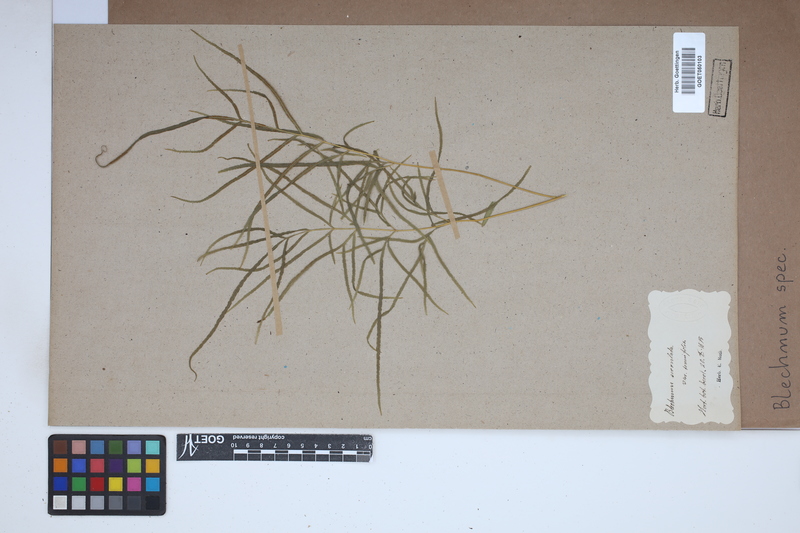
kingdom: Plantae
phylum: Tracheophyta
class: Polypodiopsida
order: Polypodiales
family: Blechnaceae
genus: Blechnum
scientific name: Blechnum
